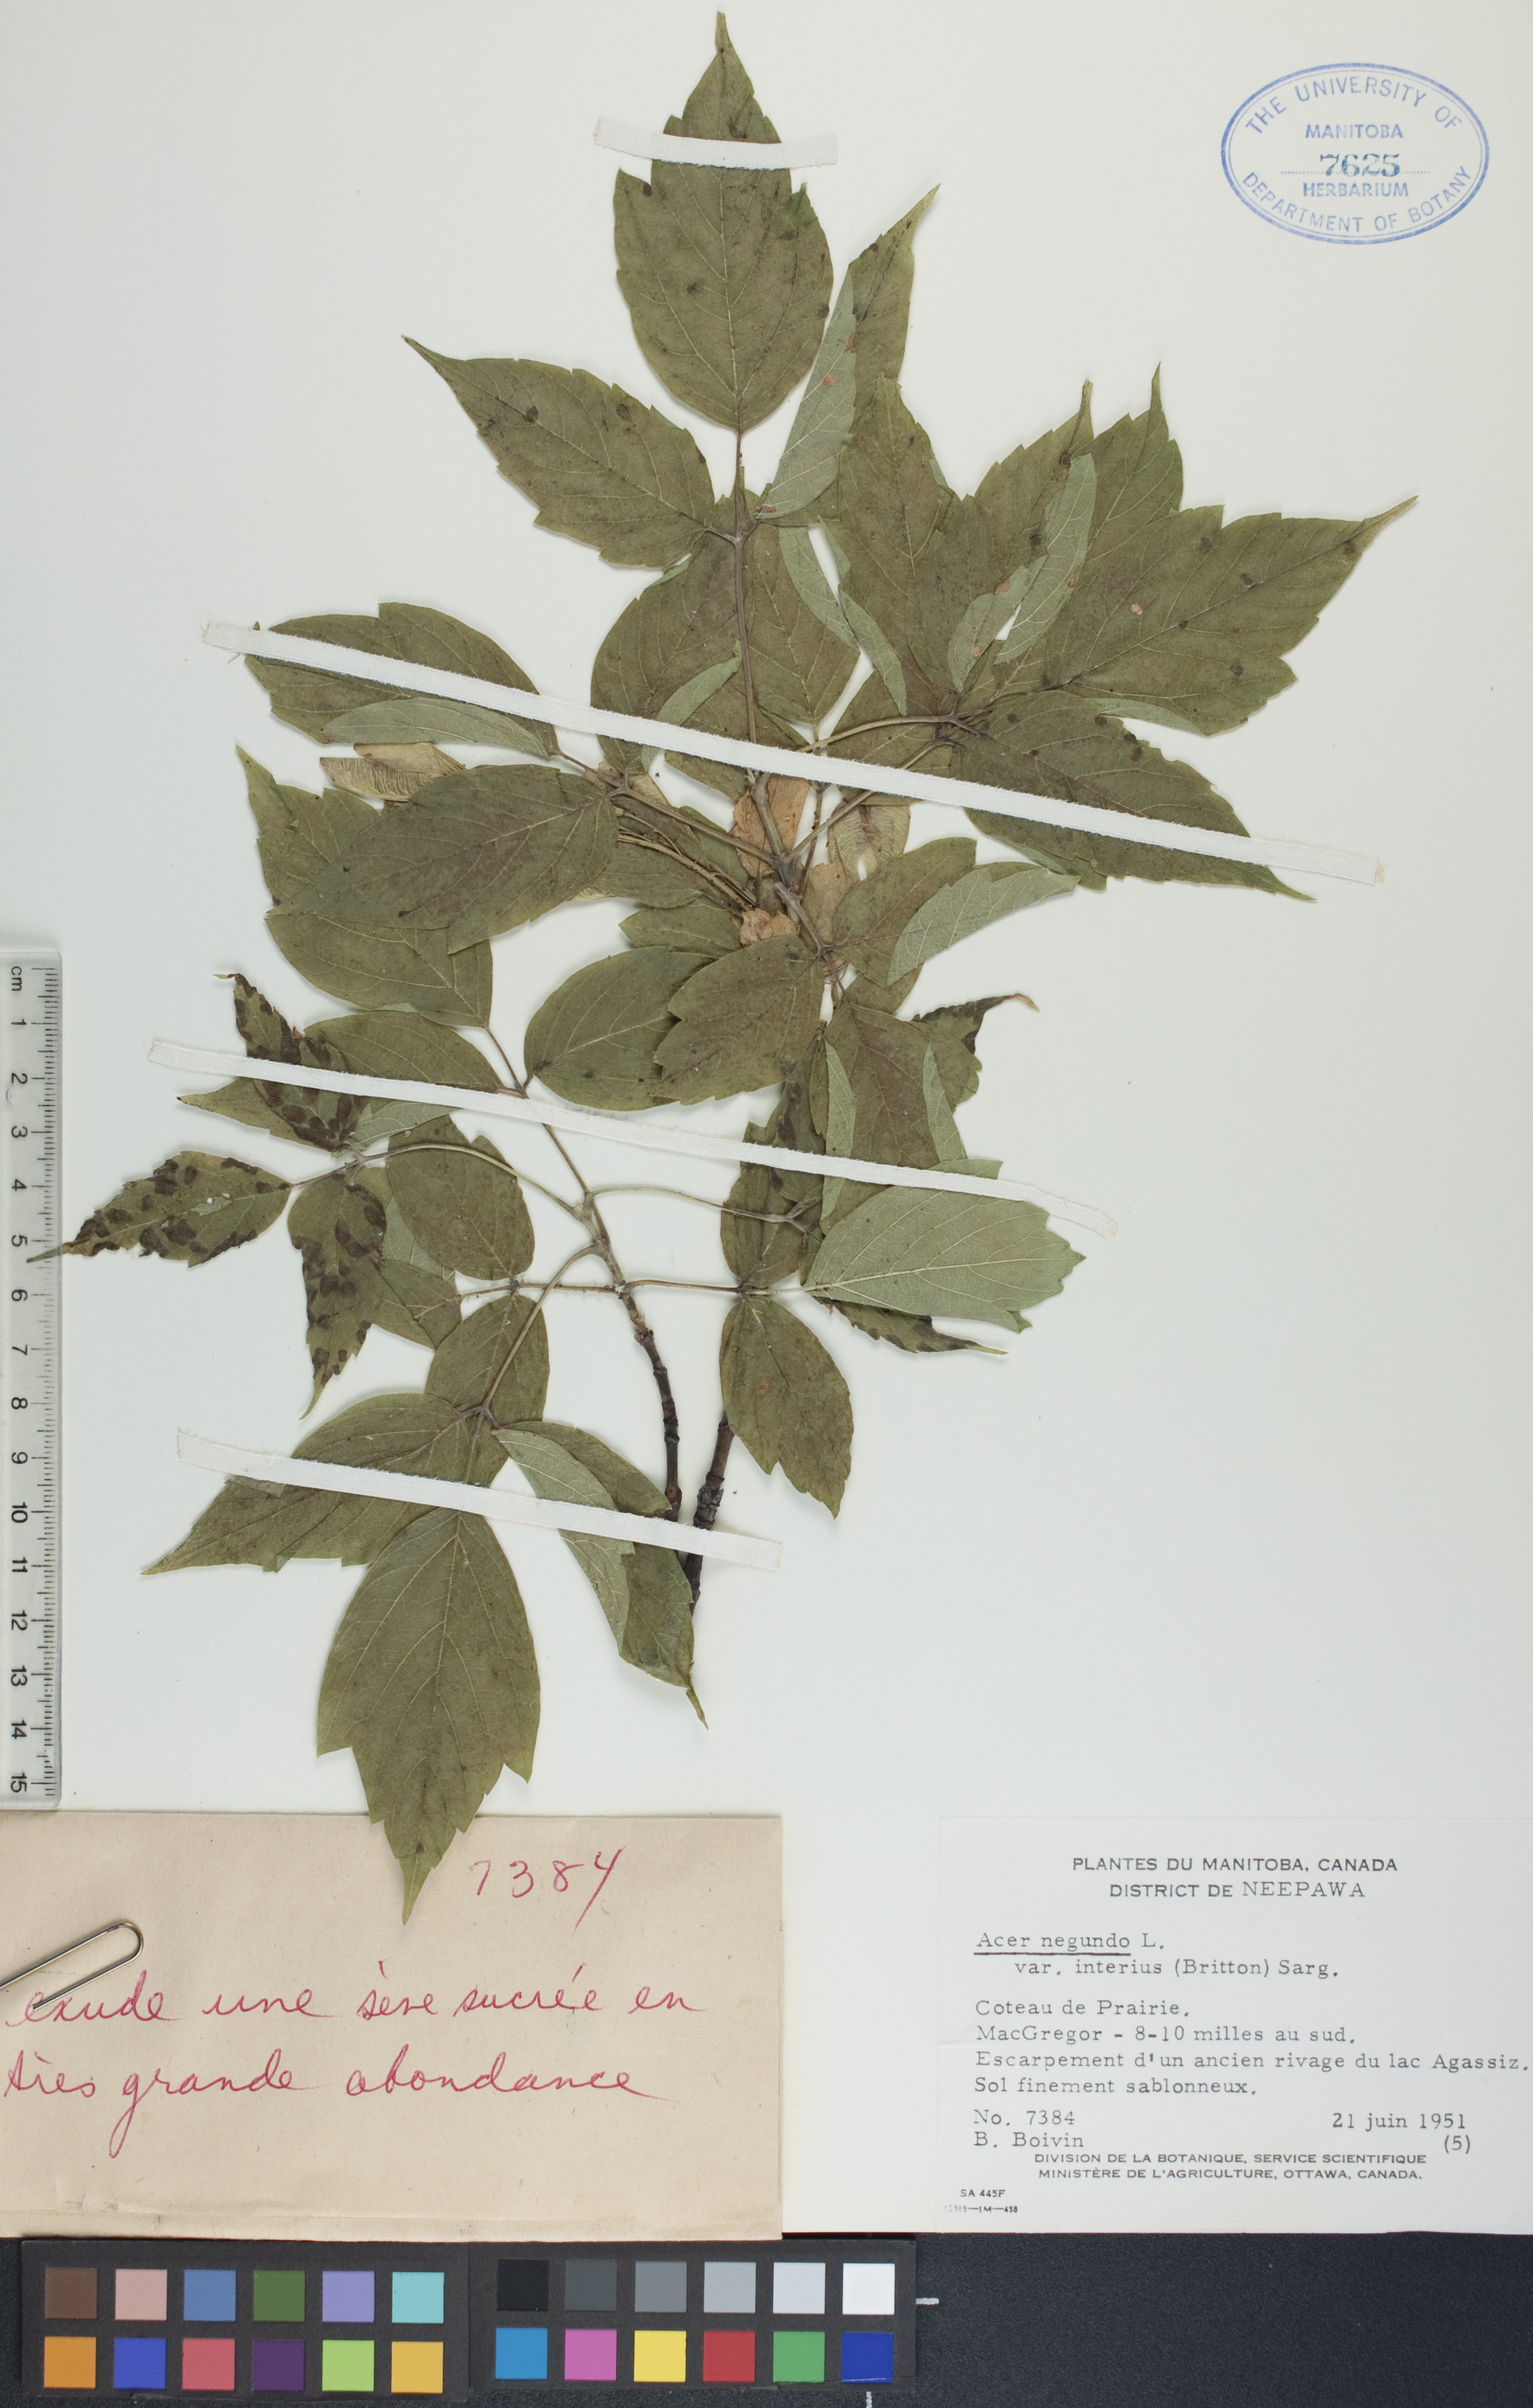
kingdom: Plantae
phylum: Tracheophyta
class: Magnoliopsida
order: Sapindales
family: Sapindaceae
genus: Acer
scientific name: Acer negundo
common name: Ashleaf maple
